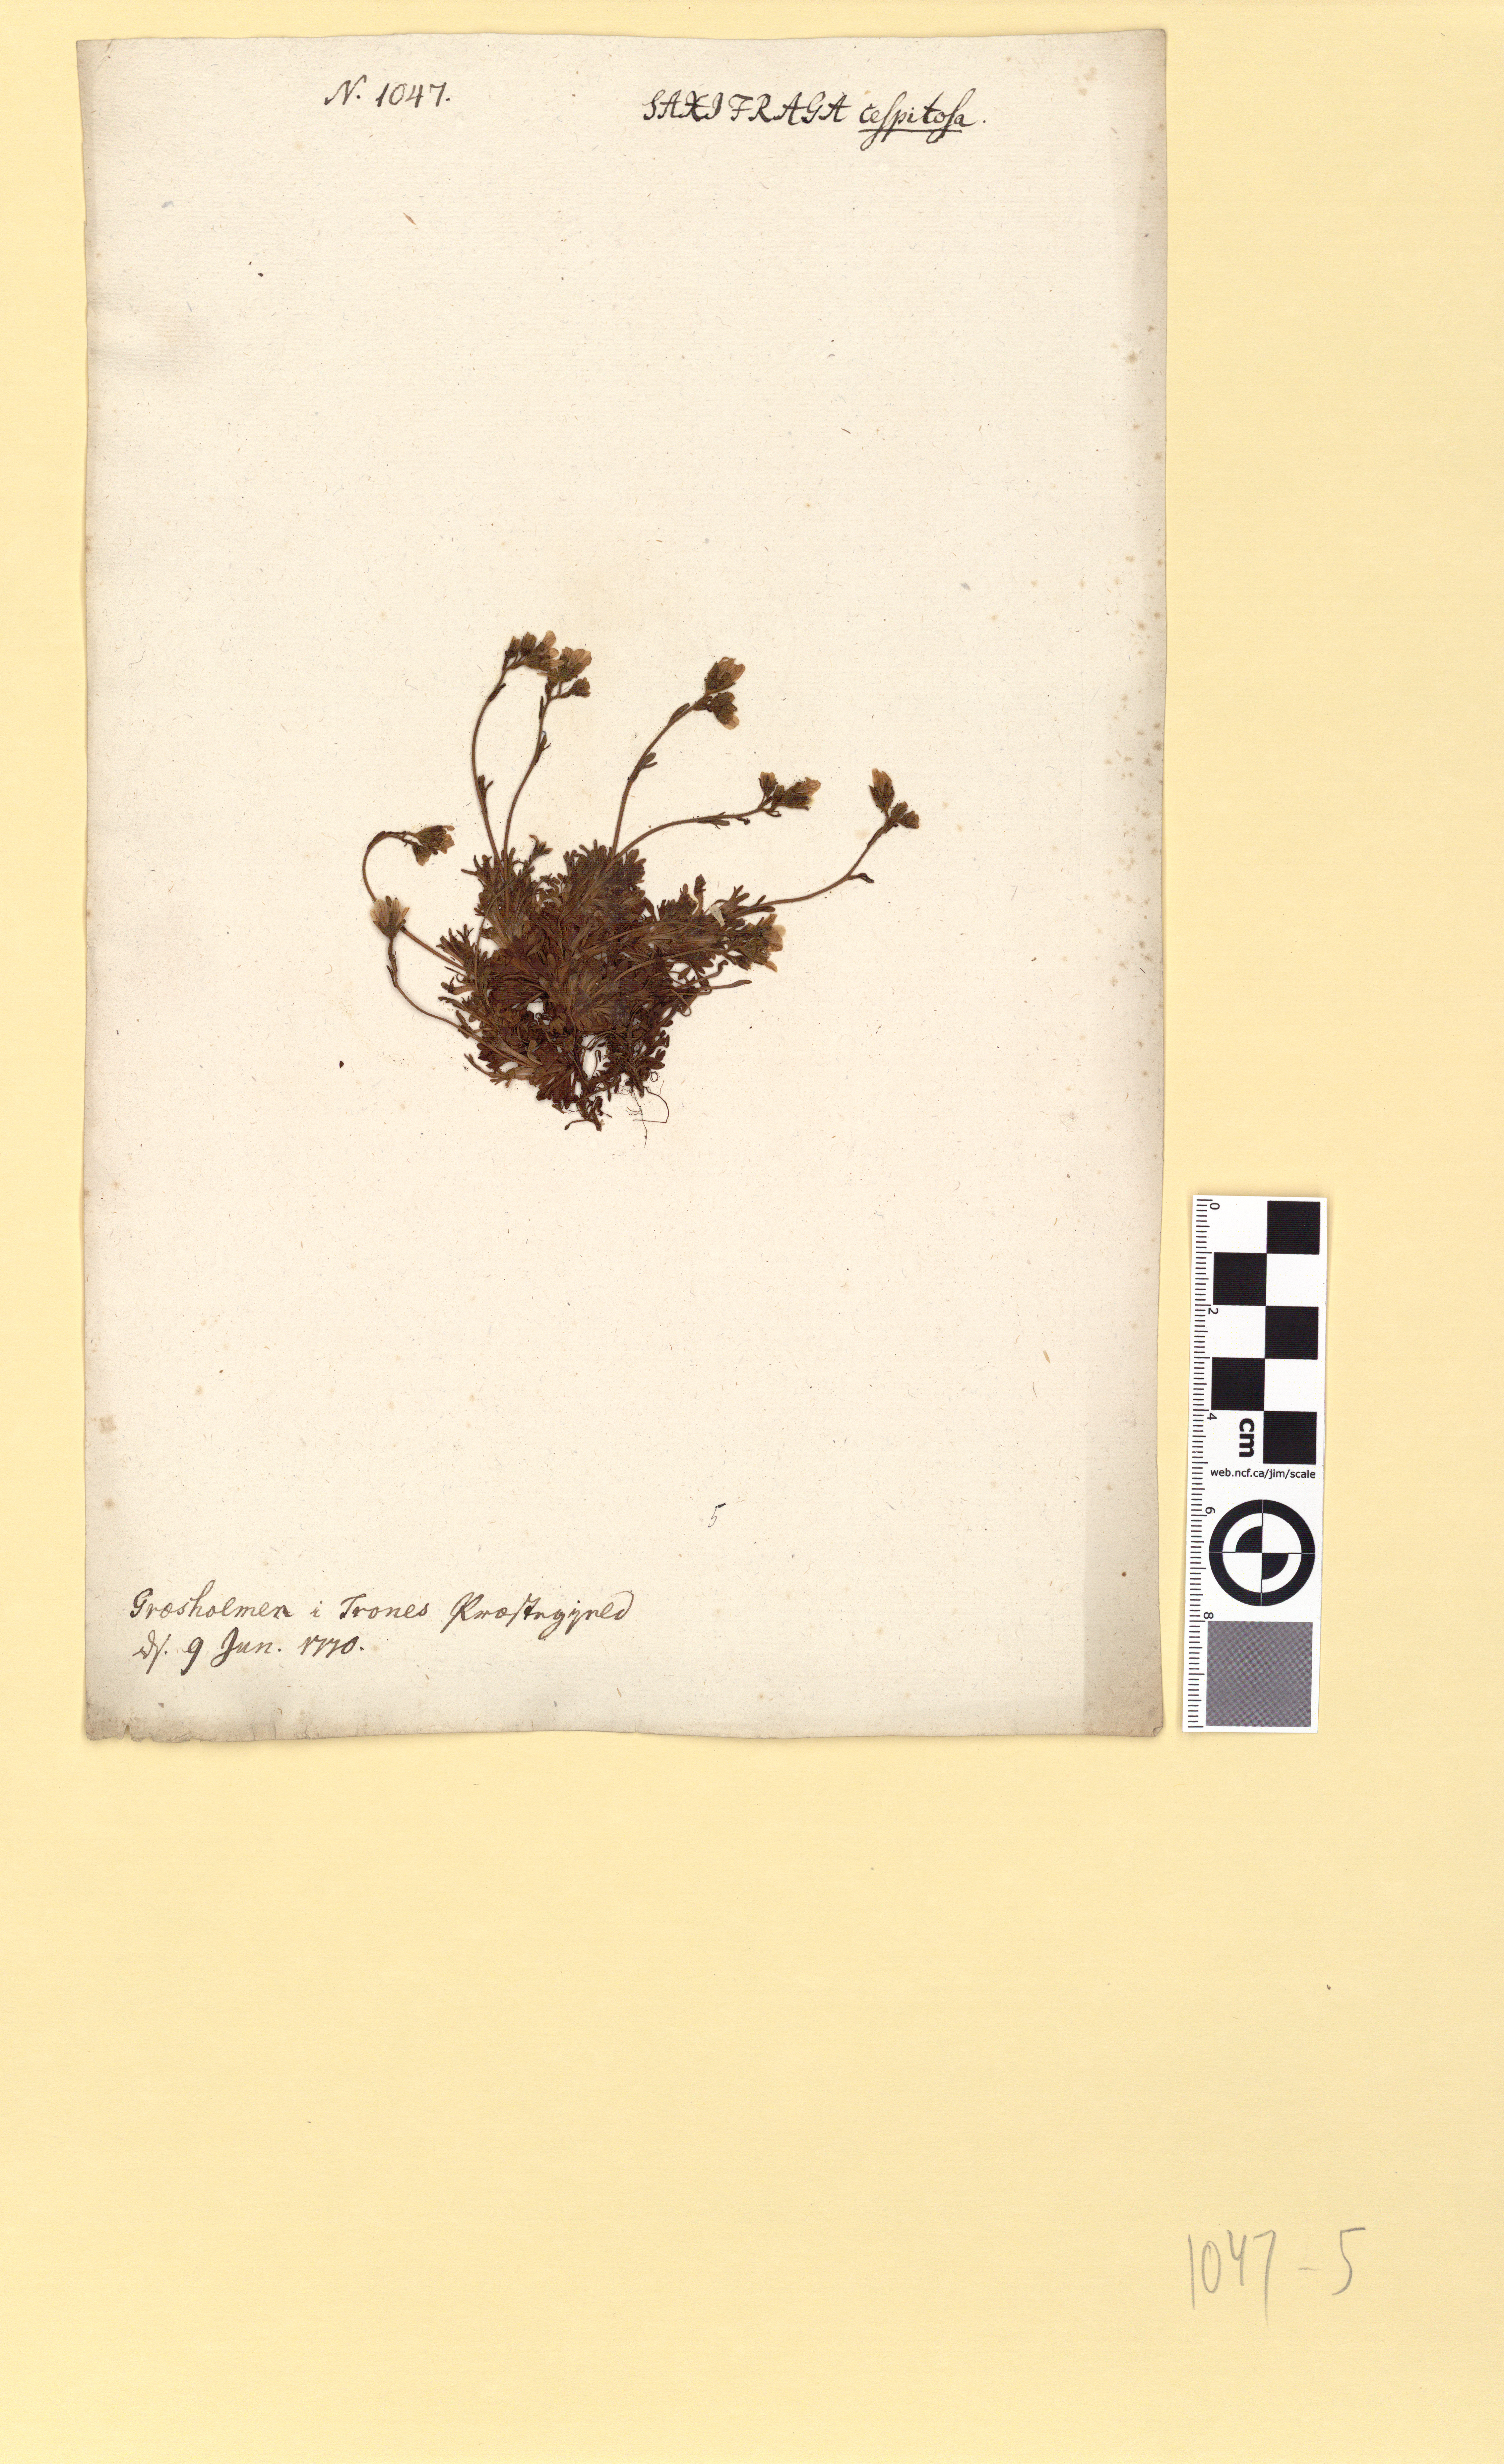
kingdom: Plantae
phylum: Tracheophyta
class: Magnoliopsida
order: Saxifragales
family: Saxifragaceae
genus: Saxifraga
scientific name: Saxifraga cespitosa
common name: Tufted saxifrage
